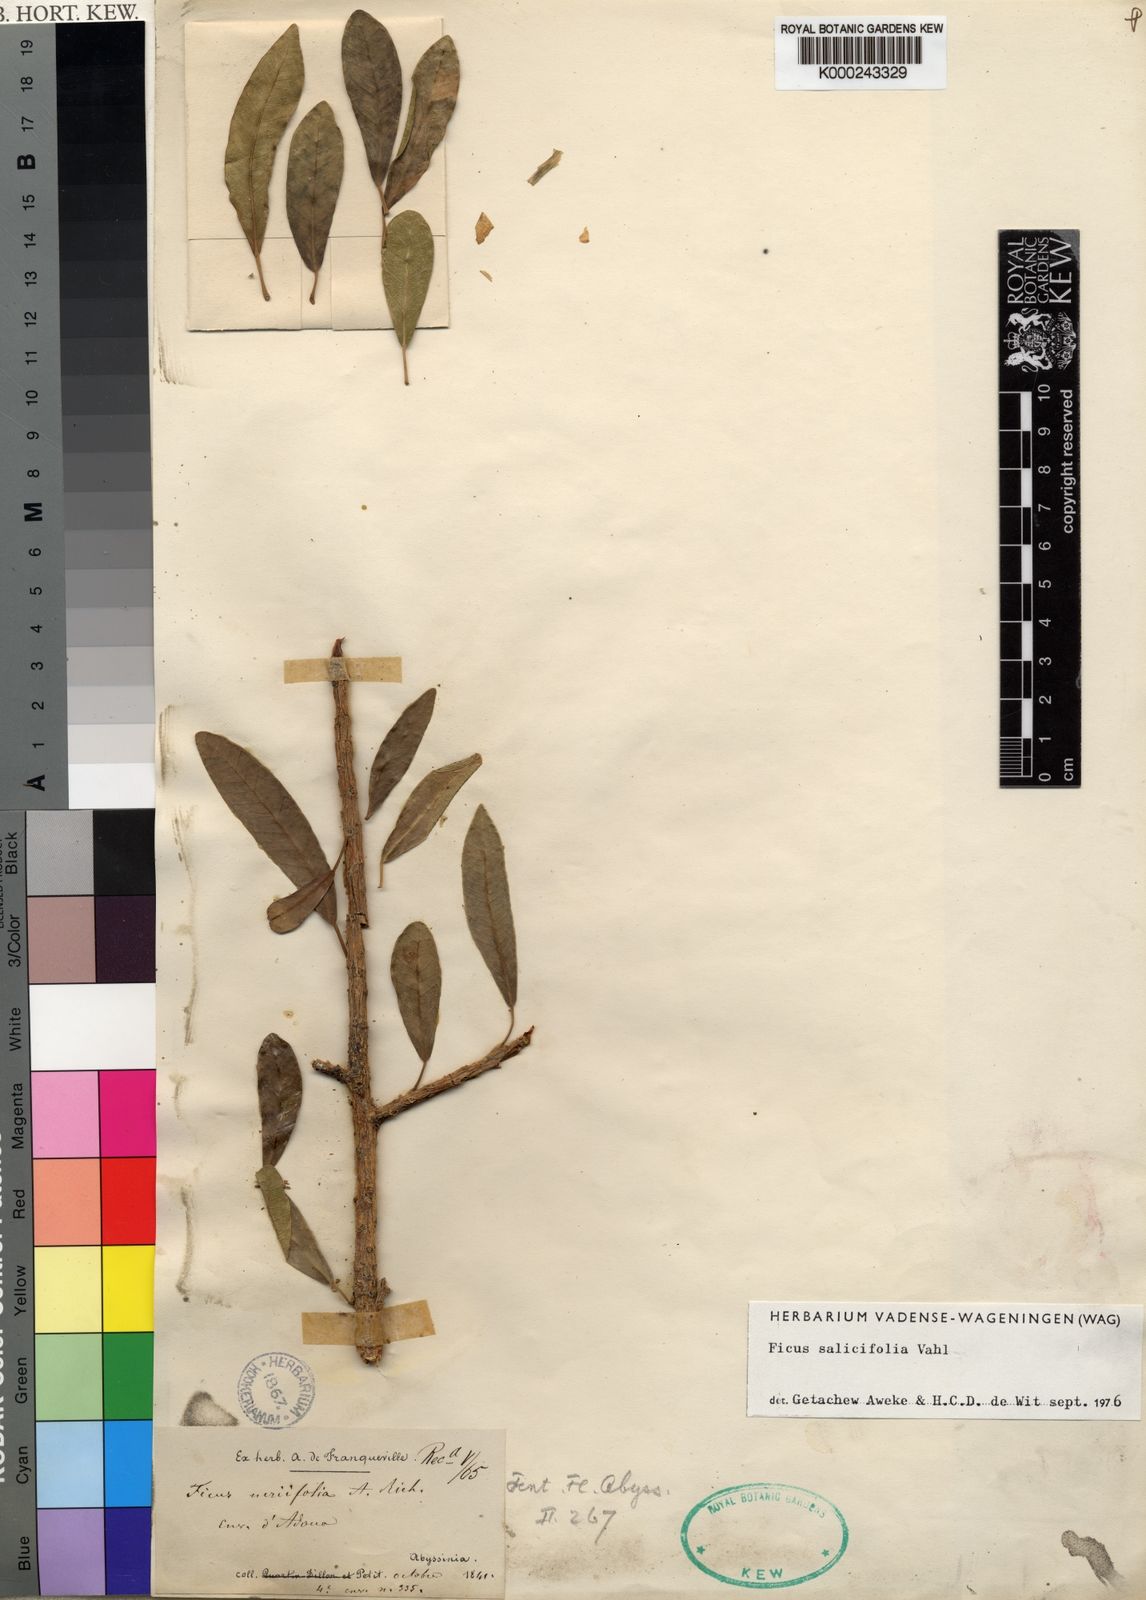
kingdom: Plantae
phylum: Tracheophyta
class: Magnoliopsida
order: Rosales
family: Moraceae
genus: Ficus
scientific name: Ficus thonningii
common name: Fig
